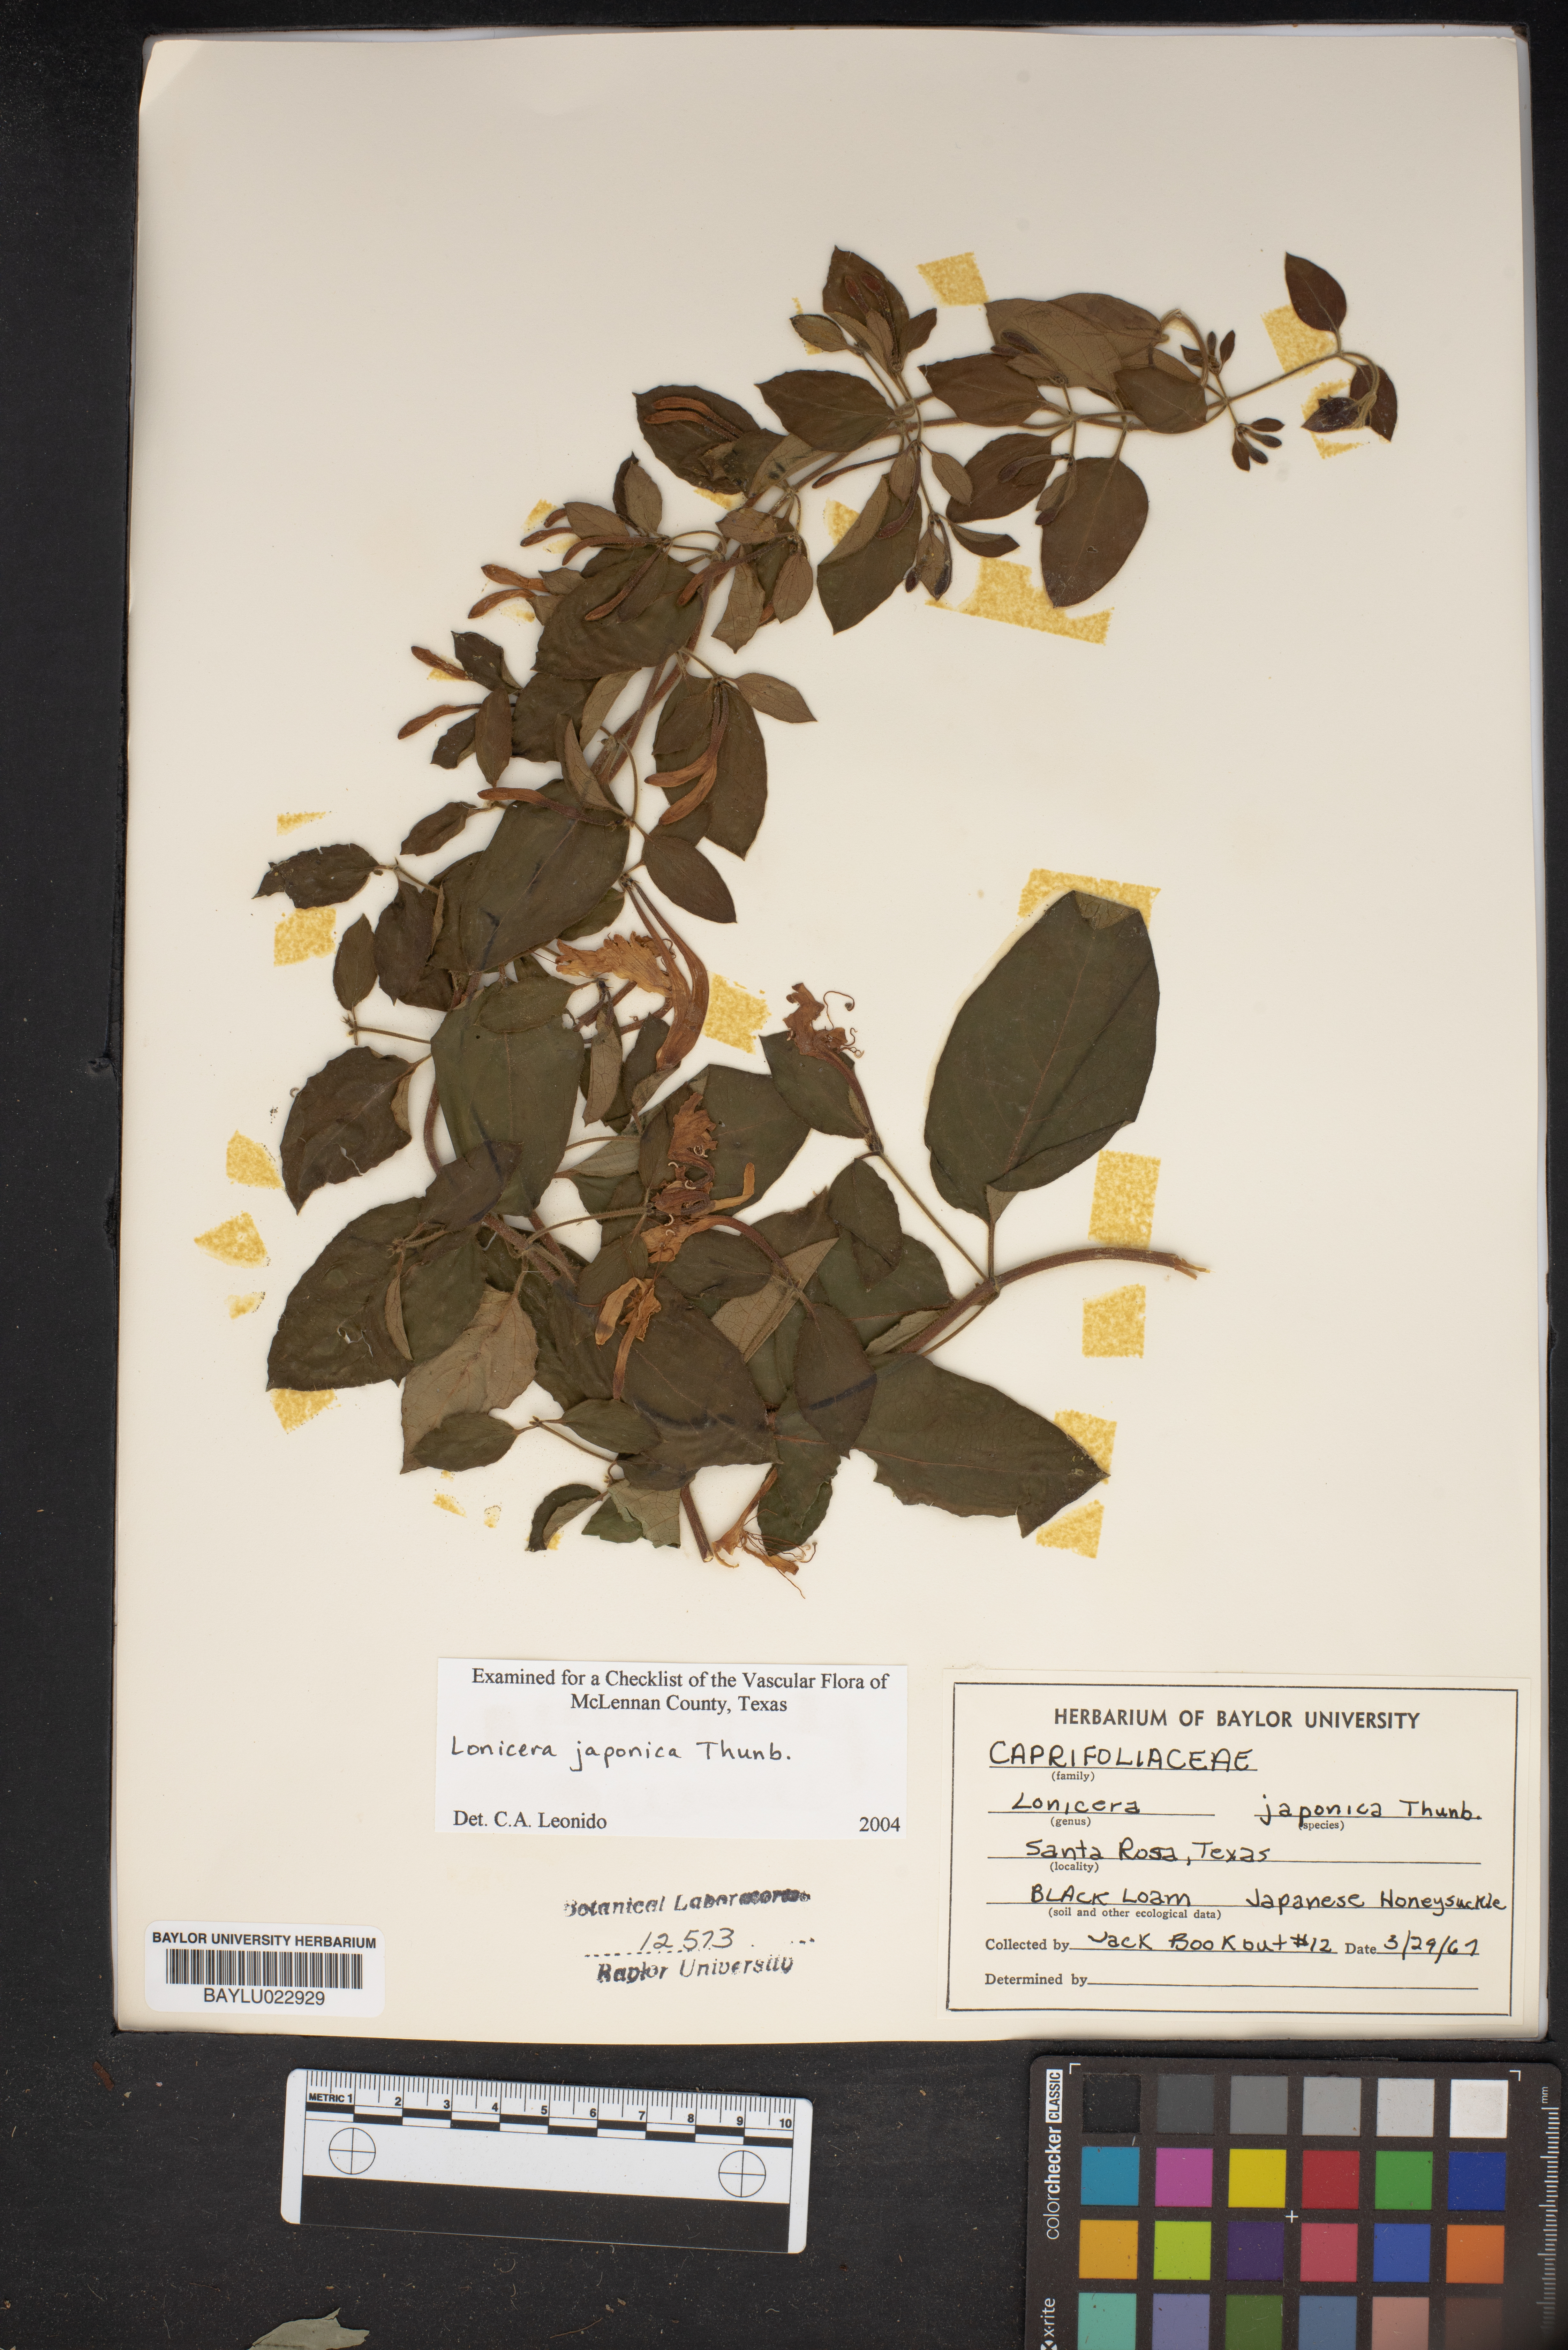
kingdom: Plantae
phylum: Tracheophyta
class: Magnoliopsida
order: Dipsacales
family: Caprifoliaceae
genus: Lonicera
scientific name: Lonicera japonica
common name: Japanese honeysuckle
